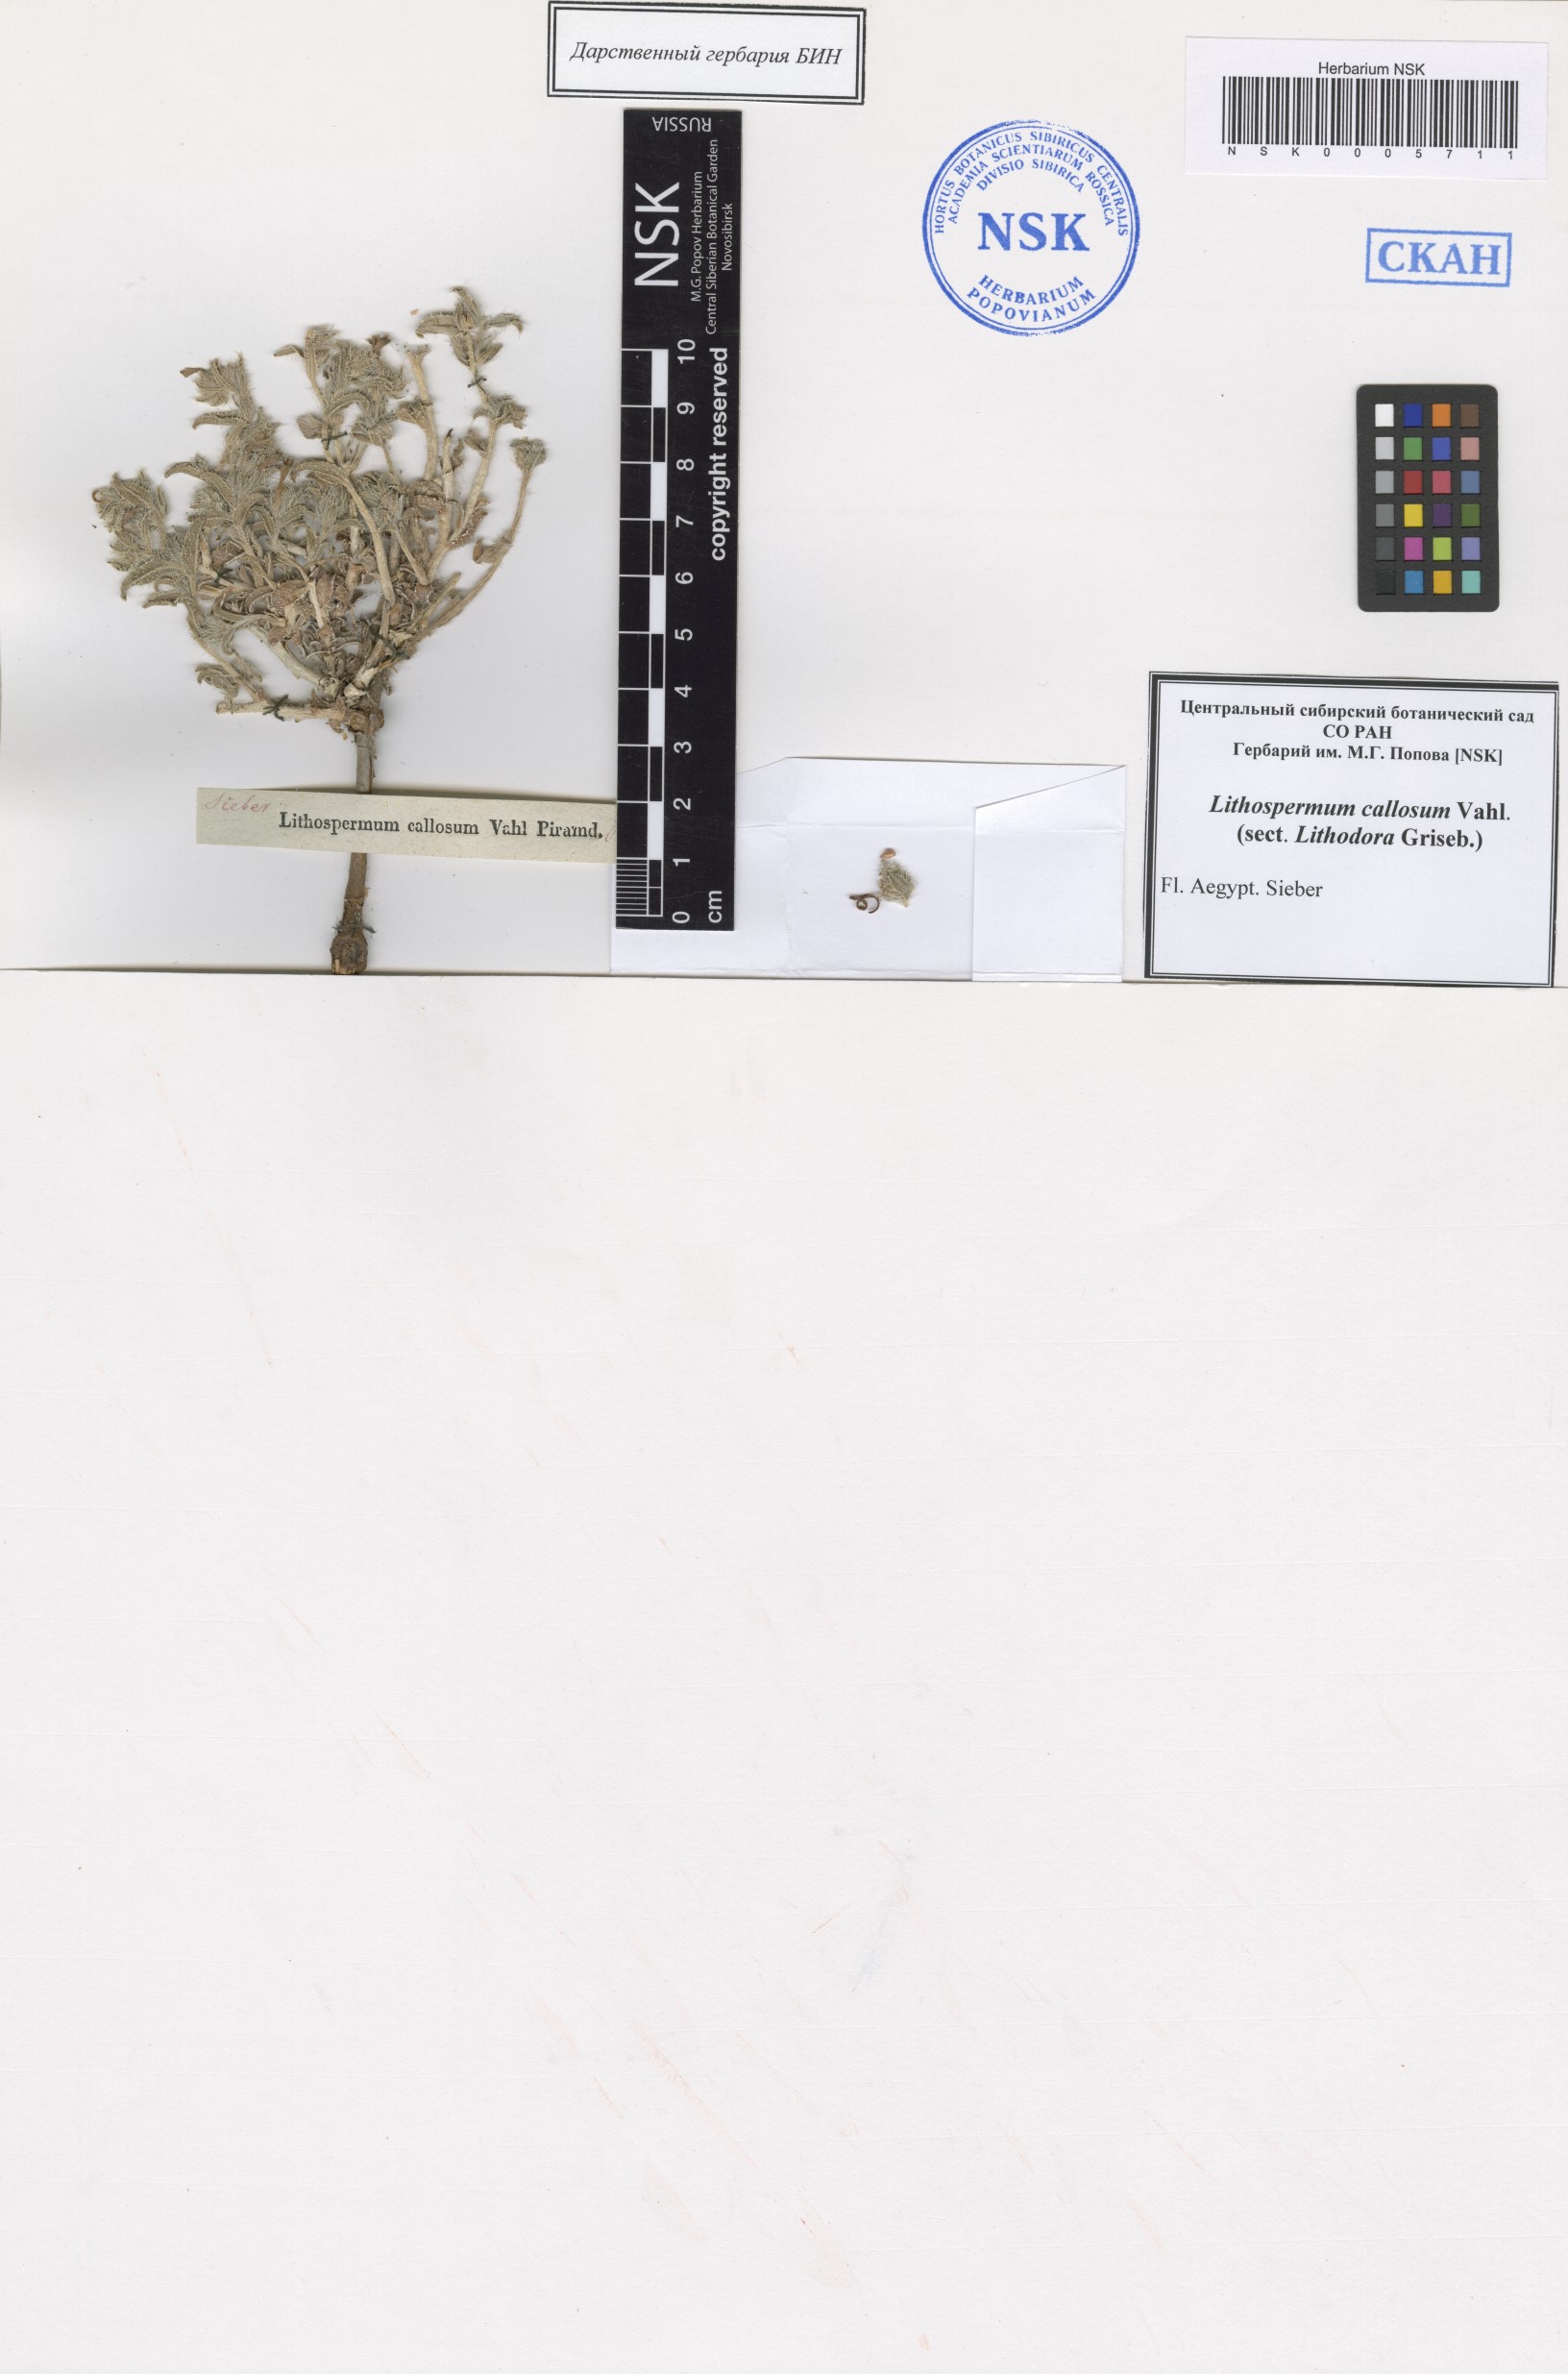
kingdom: Plantae
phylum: Tracheophyta
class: Magnoliopsida
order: Boraginales
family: Boraginaceae
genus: Moltkiopsis
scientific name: Moltkiopsis ciliata
